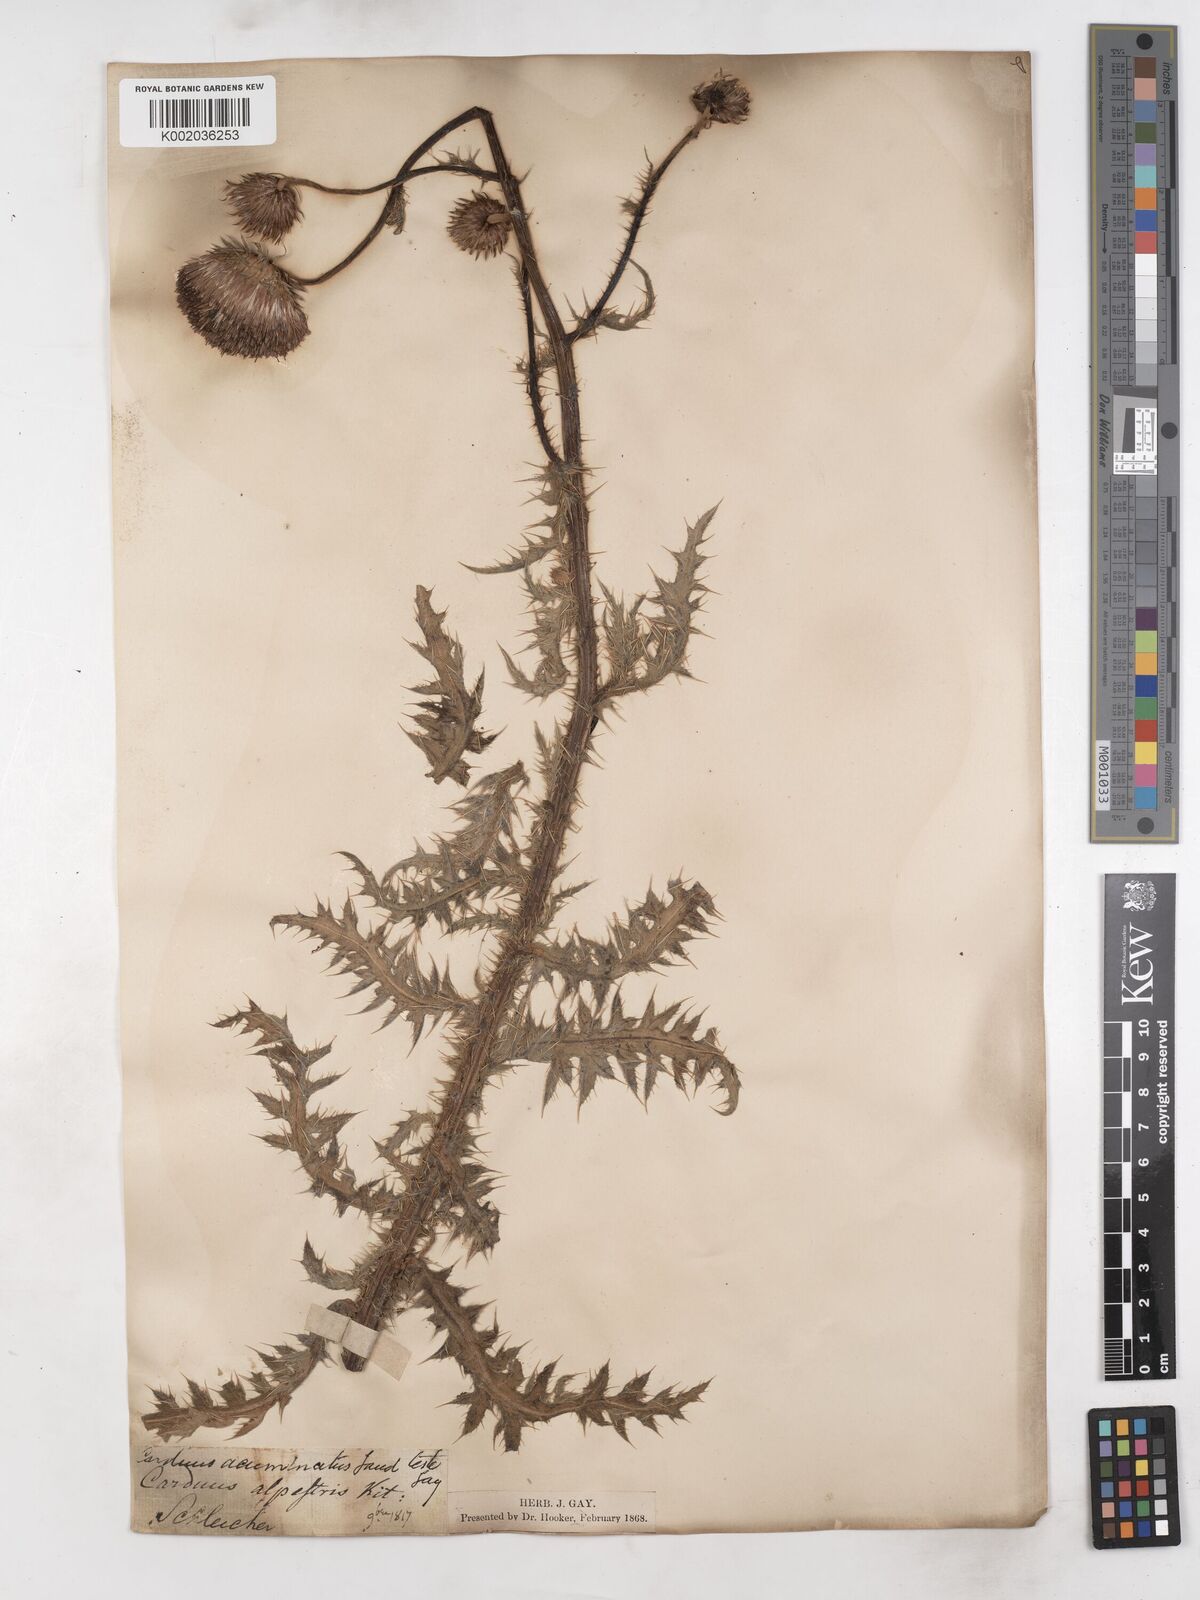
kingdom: Plantae
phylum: Tracheophyta
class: Magnoliopsida
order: Asterales
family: Asteraceae
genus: Carduus
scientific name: Carduus defloratus
